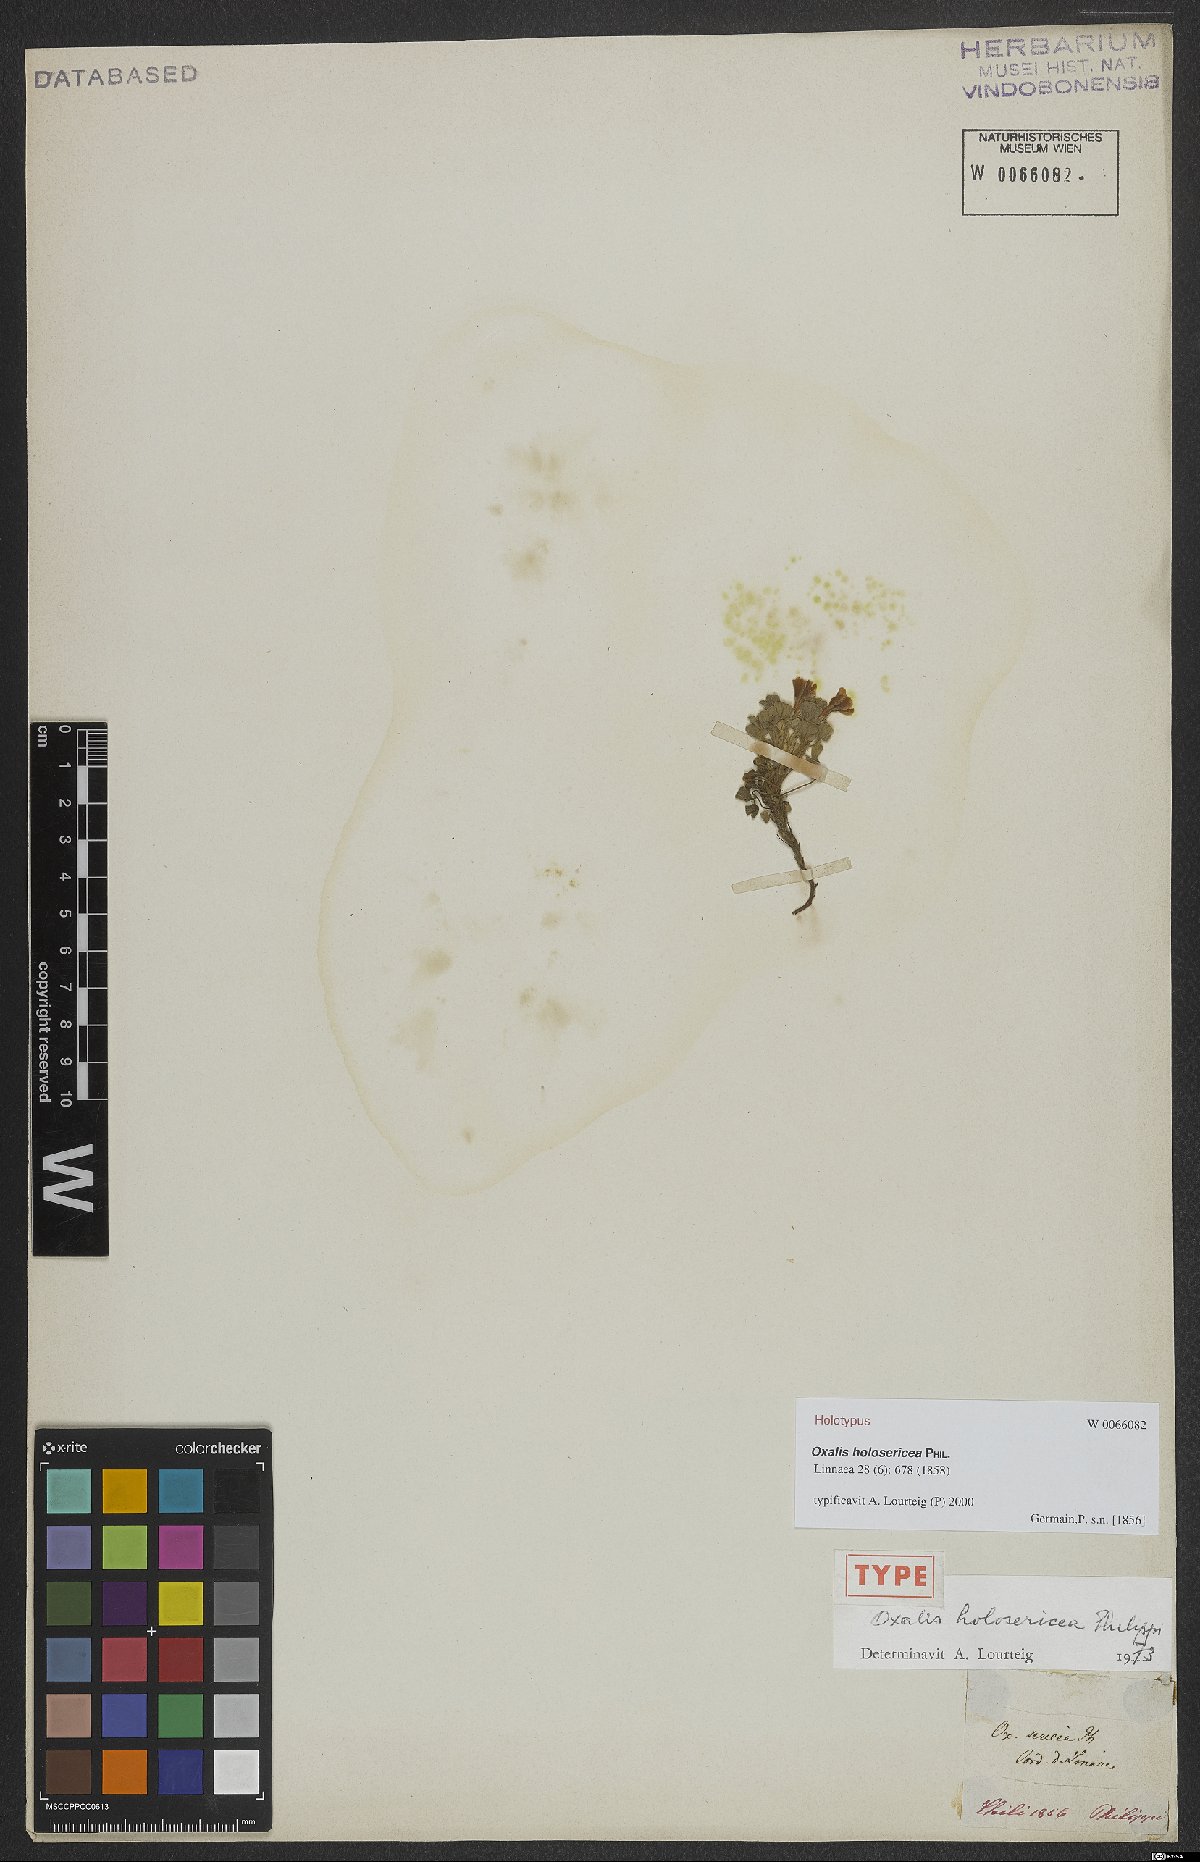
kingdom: Plantae
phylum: Tracheophyta
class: Magnoliopsida
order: Oxalidales
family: Oxalidaceae
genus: Oxalis
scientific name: Oxalis holosericea
